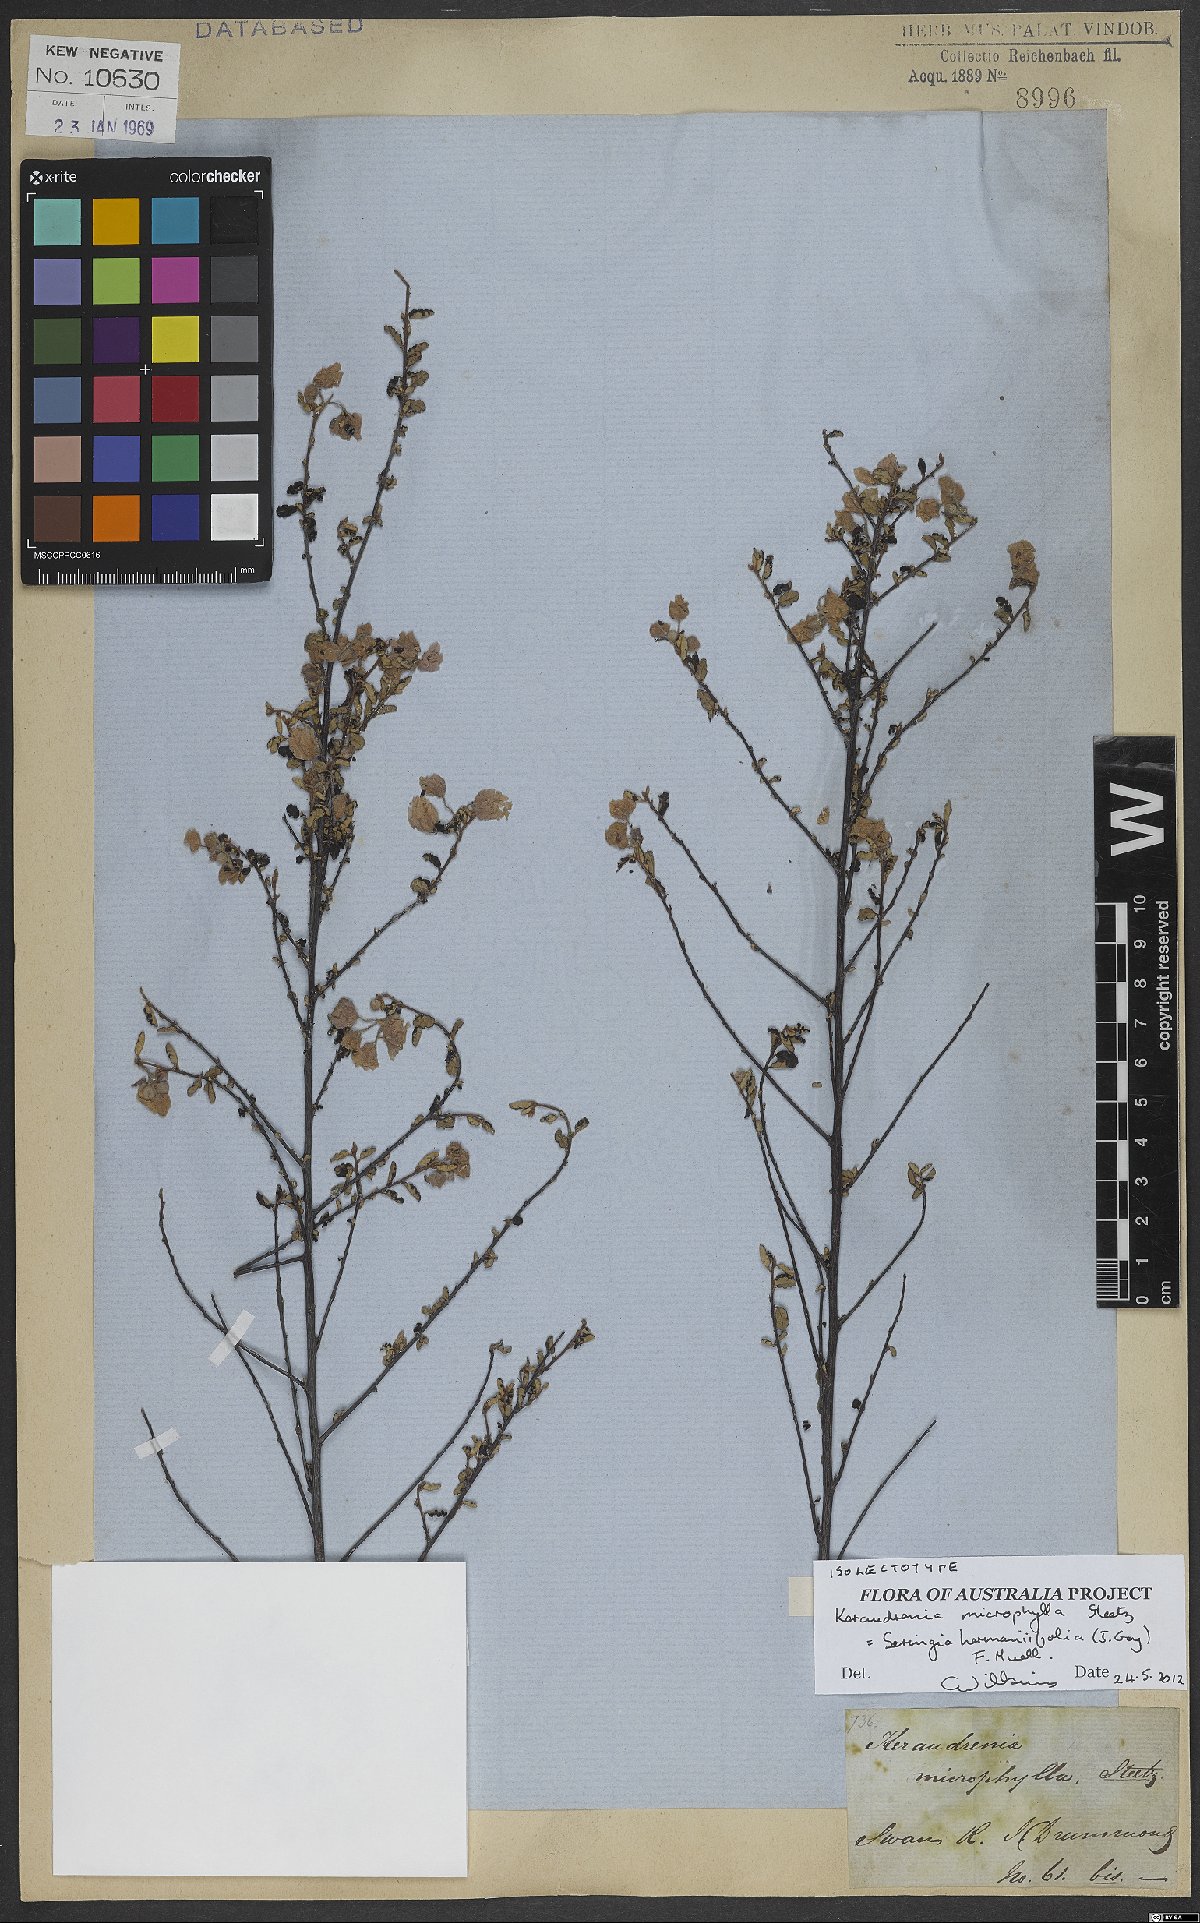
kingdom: Plantae
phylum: Tracheophyta
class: Magnoliopsida
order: Malvales
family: Malvaceae
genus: Seringia
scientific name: Seringia hermannifolia
